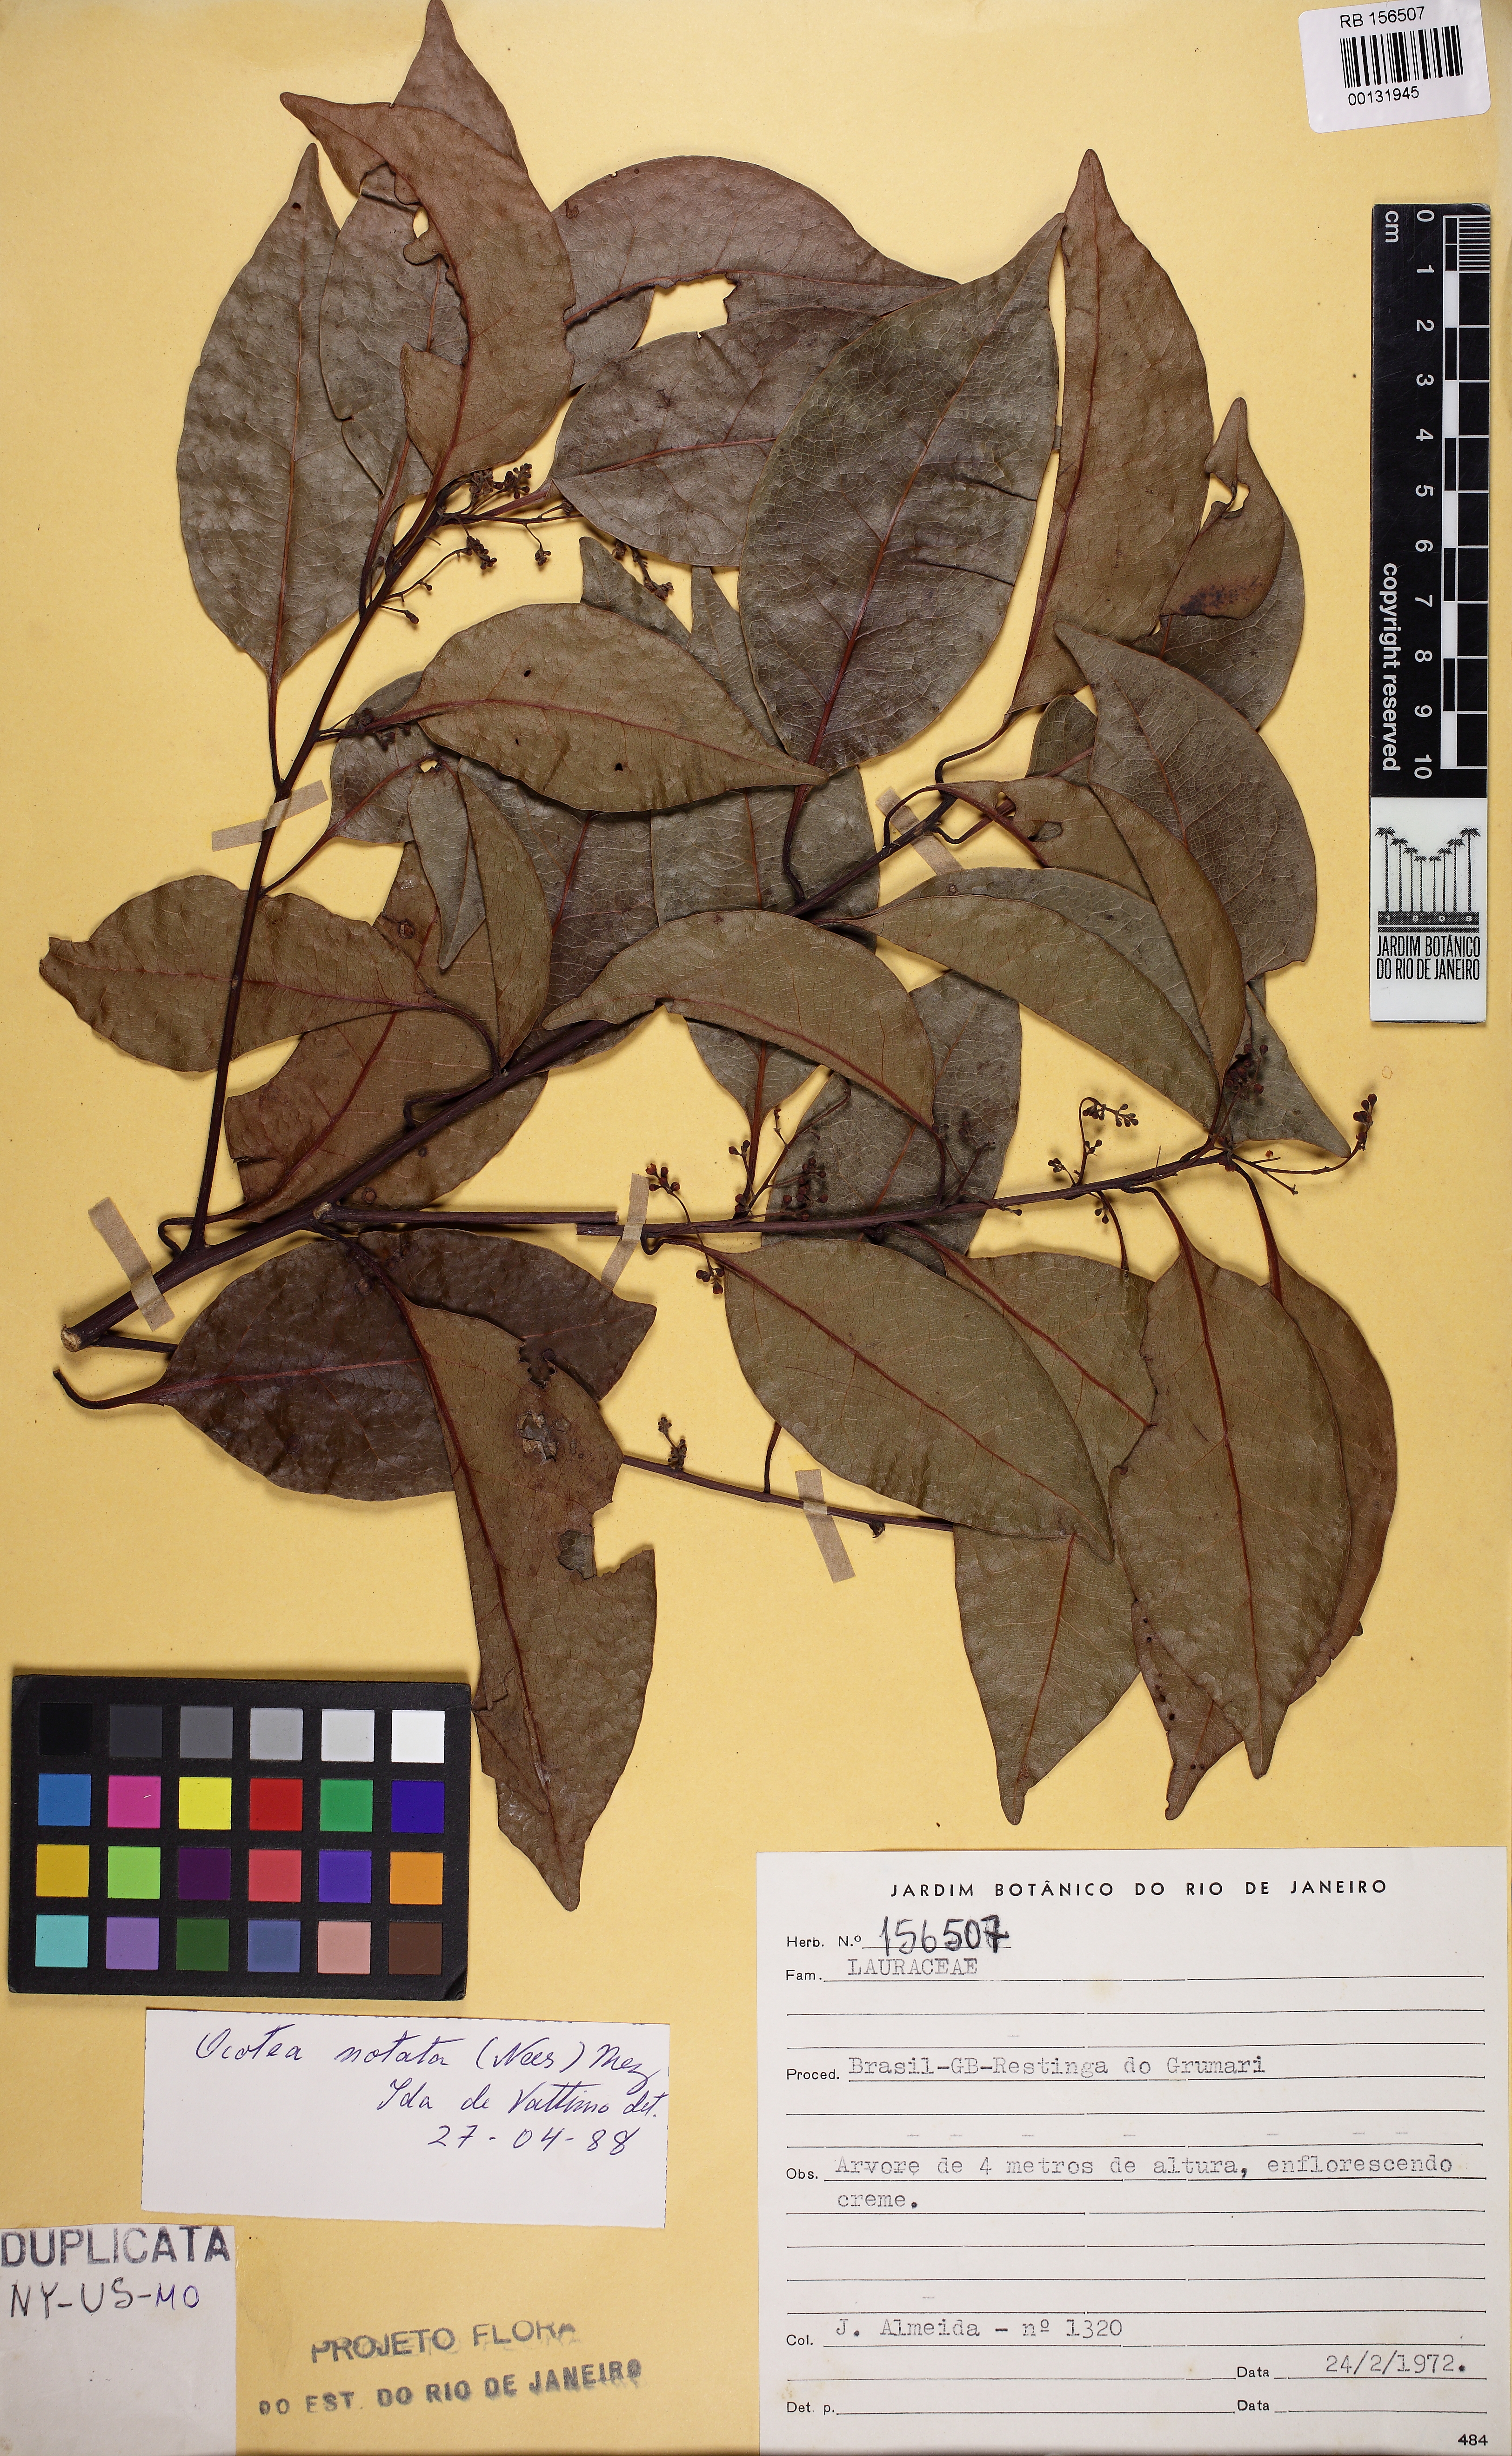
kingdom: Plantae
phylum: Tracheophyta
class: Magnoliopsida
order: Laurales
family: Lauraceae
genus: Mespilodaphne
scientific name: Mespilodaphne notata
